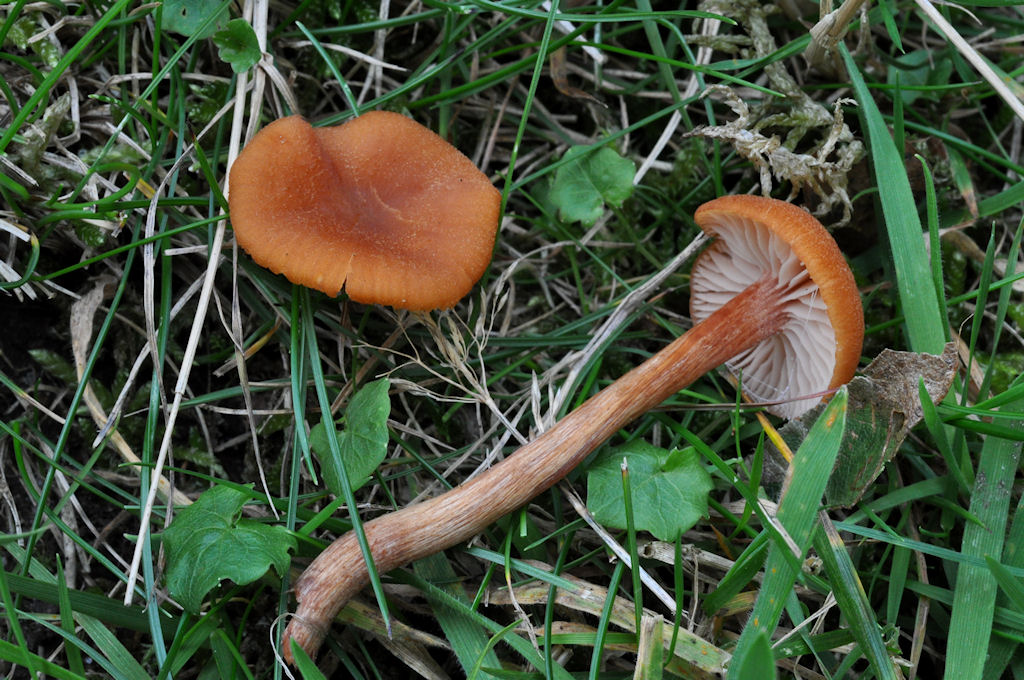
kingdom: Fungi
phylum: Basidiomycota
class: Agaricomycetes
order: Agaricales
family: Hydnangiaceae
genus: Laccaria
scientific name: Laccaria bicolor
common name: tvefarvet ametysthat
